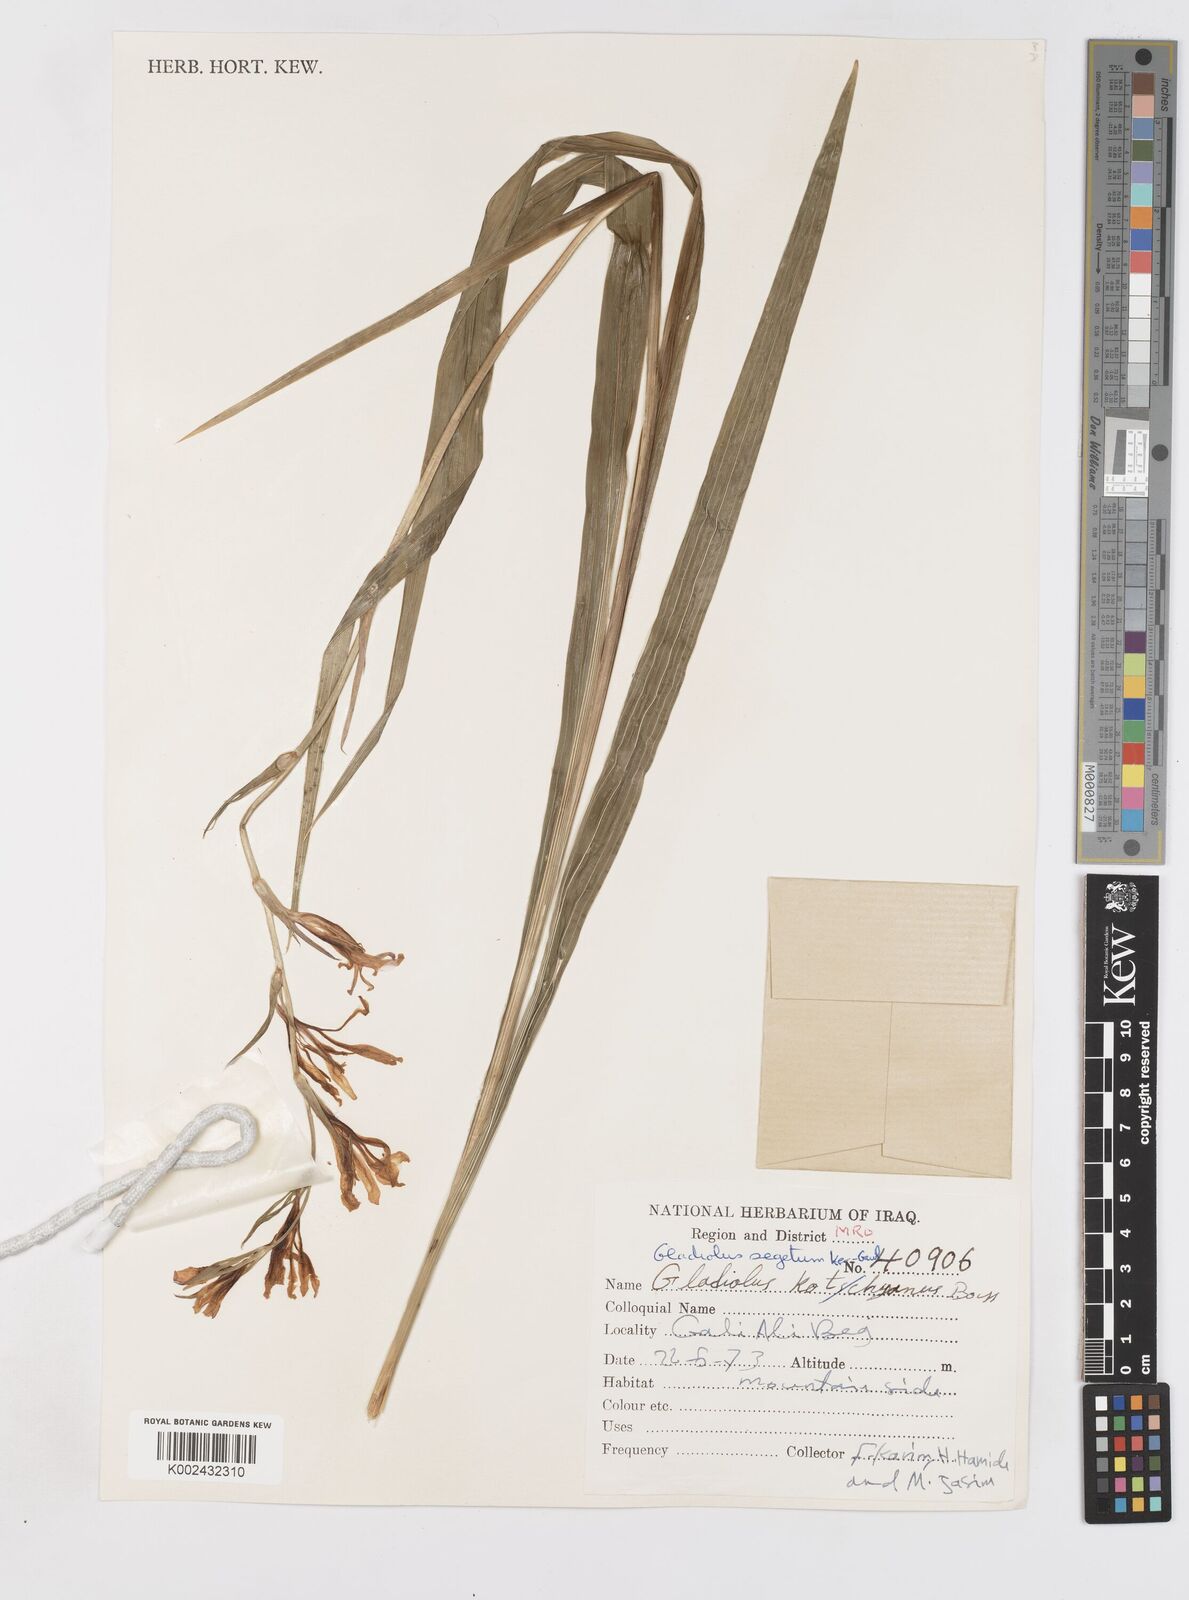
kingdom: Plantae
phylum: Tracheophyta
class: Liliopsida
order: Asparagales
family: Iridaceae
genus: Gladiolus
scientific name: Gladiolus italicus
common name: Field gladiolus
